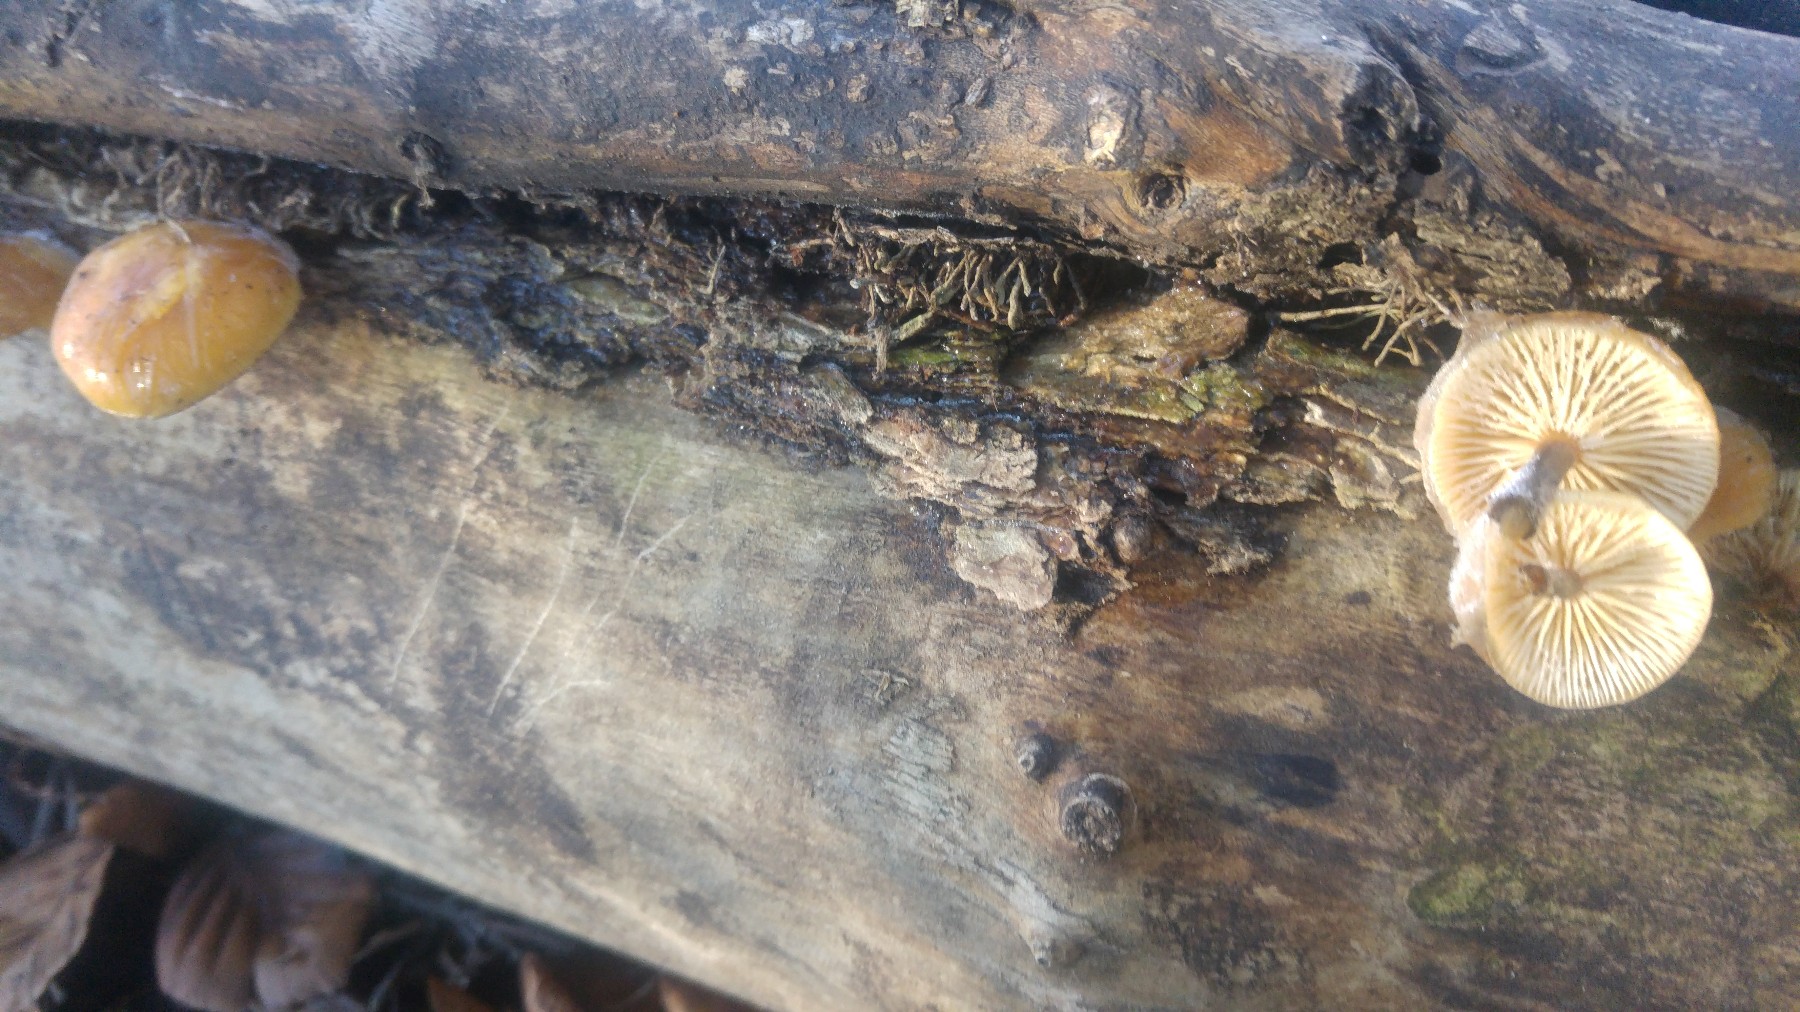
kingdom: Fungi
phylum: Basidiomycota
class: Agaricomycetes
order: Agaricales
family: Physalacriaceae
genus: Flammulina
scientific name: Flammulina
